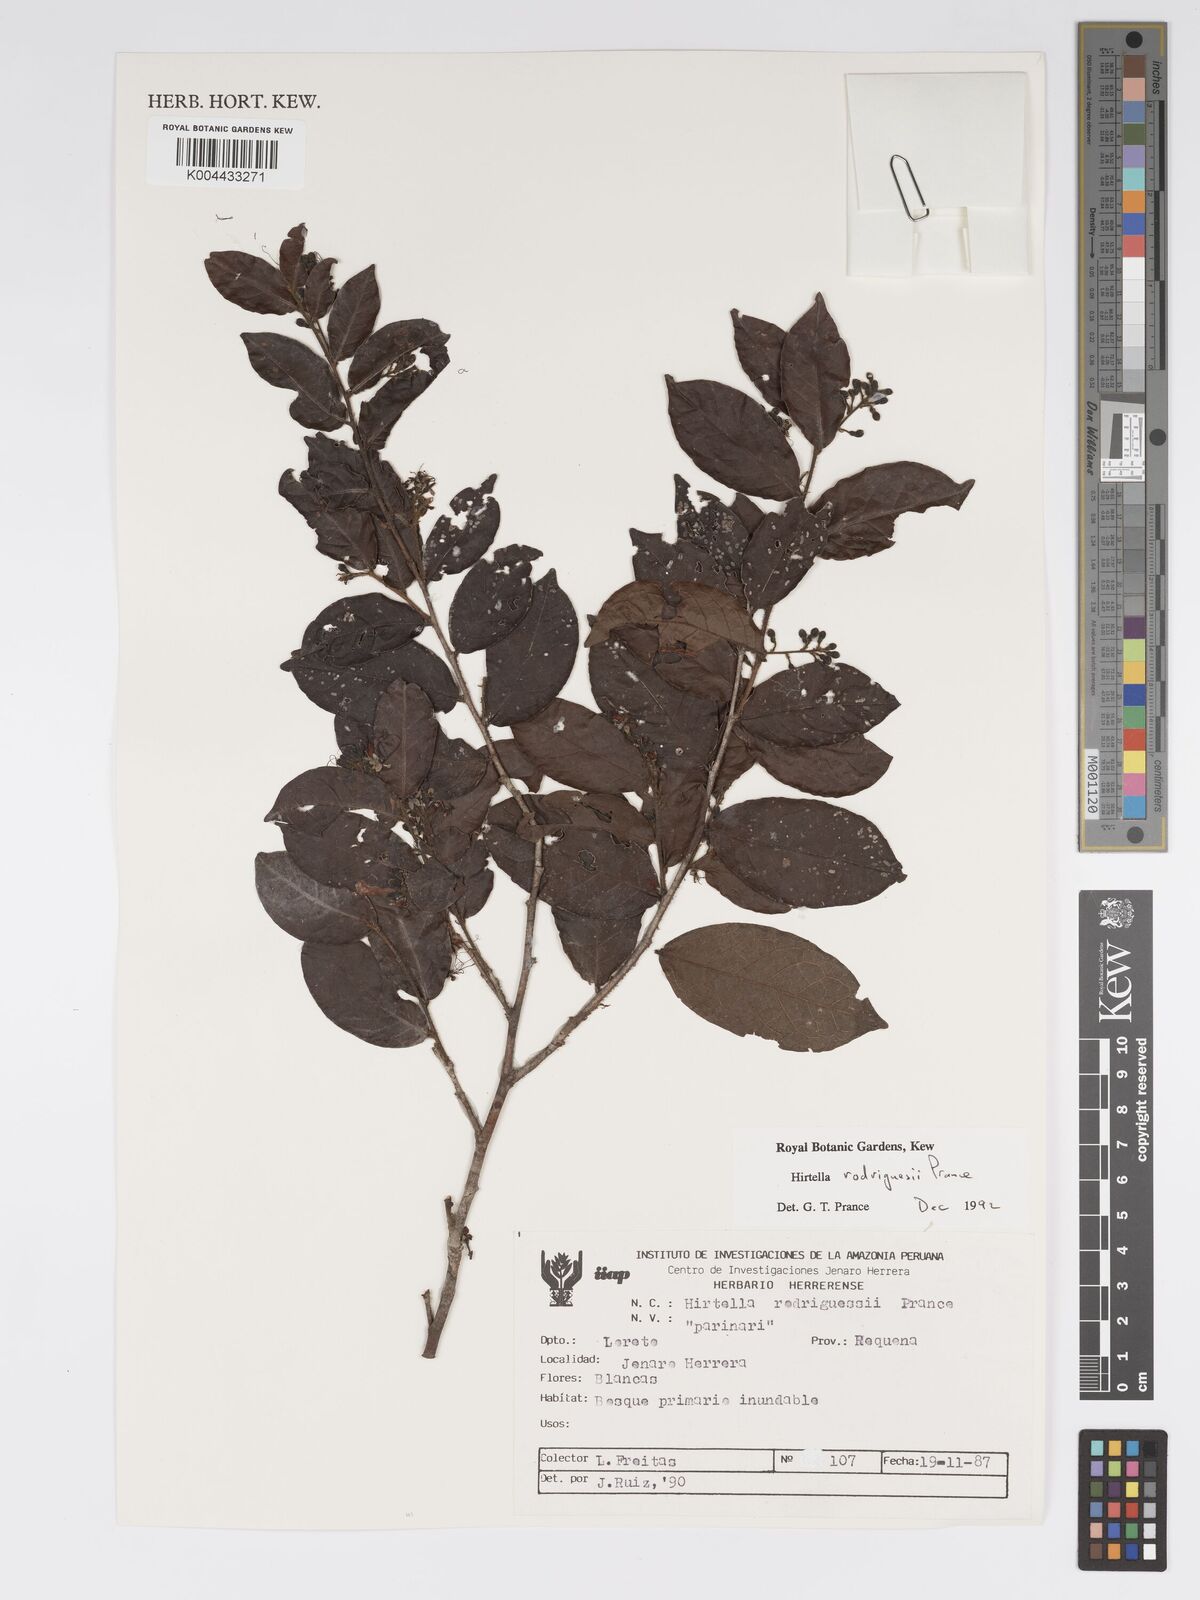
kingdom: Plantae
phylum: Tracheophyta
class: Magnoliopsida
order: Malpighiales
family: Chrysobalanaceae
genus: Hirtella
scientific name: Hirtella rodriguesii
